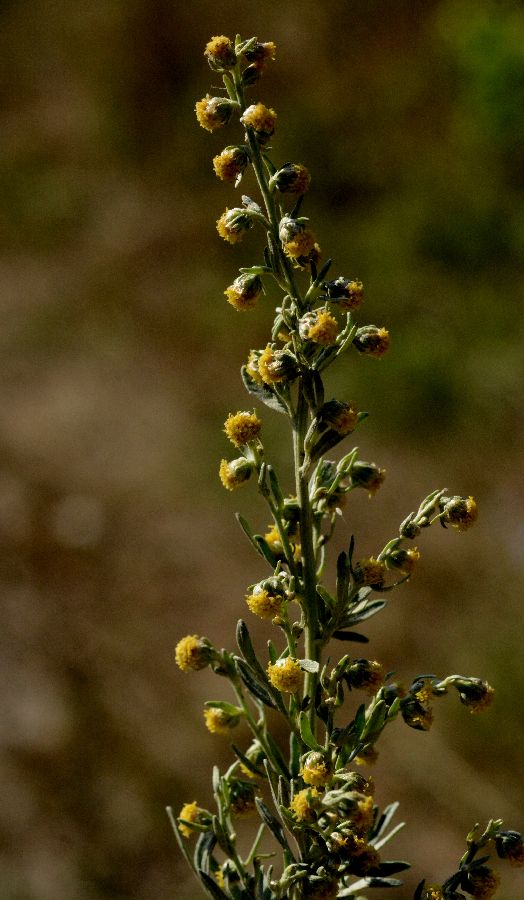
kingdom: Plantae
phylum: Tracheophyta
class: Magnoliopsida
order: Asterales
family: Asteraceae
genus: Artemisia
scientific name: Artemisia absinthium
